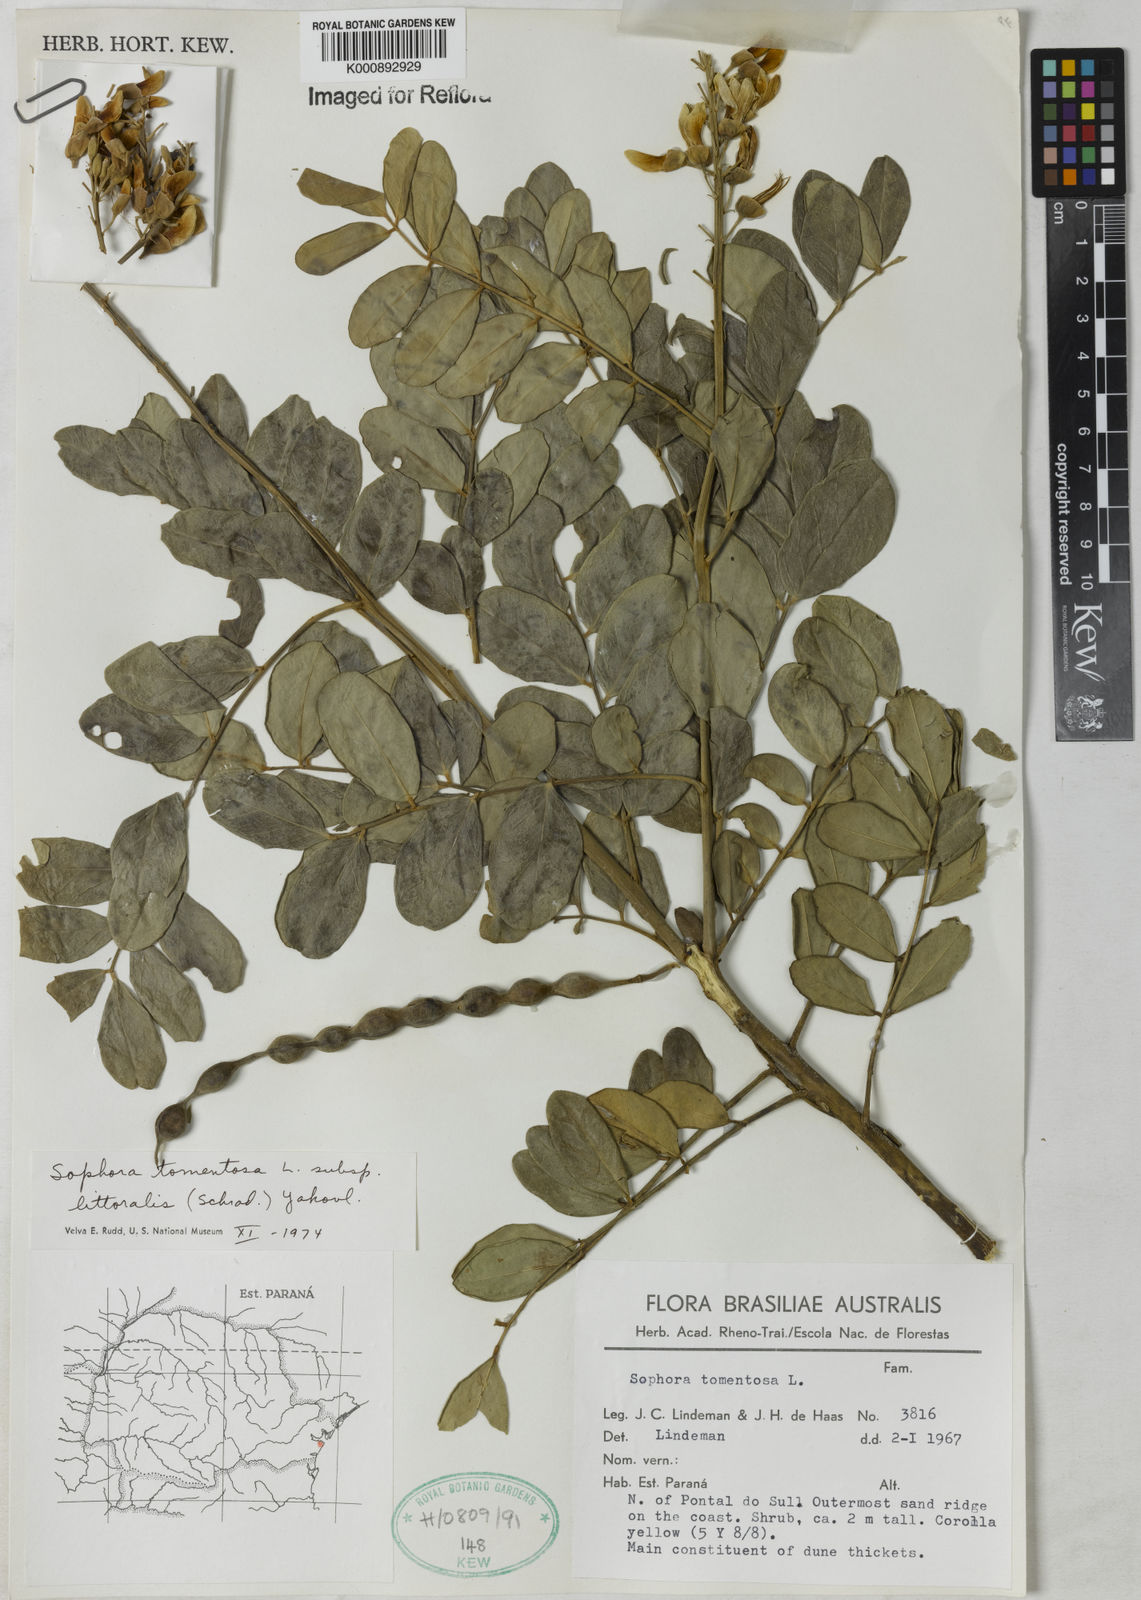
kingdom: Plantae
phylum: Tracheophyta
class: Magnoliopsida
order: Fabales
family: Fabaceae
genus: Sophora
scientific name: Sophora tomentosa
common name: Yellow necklacepod
